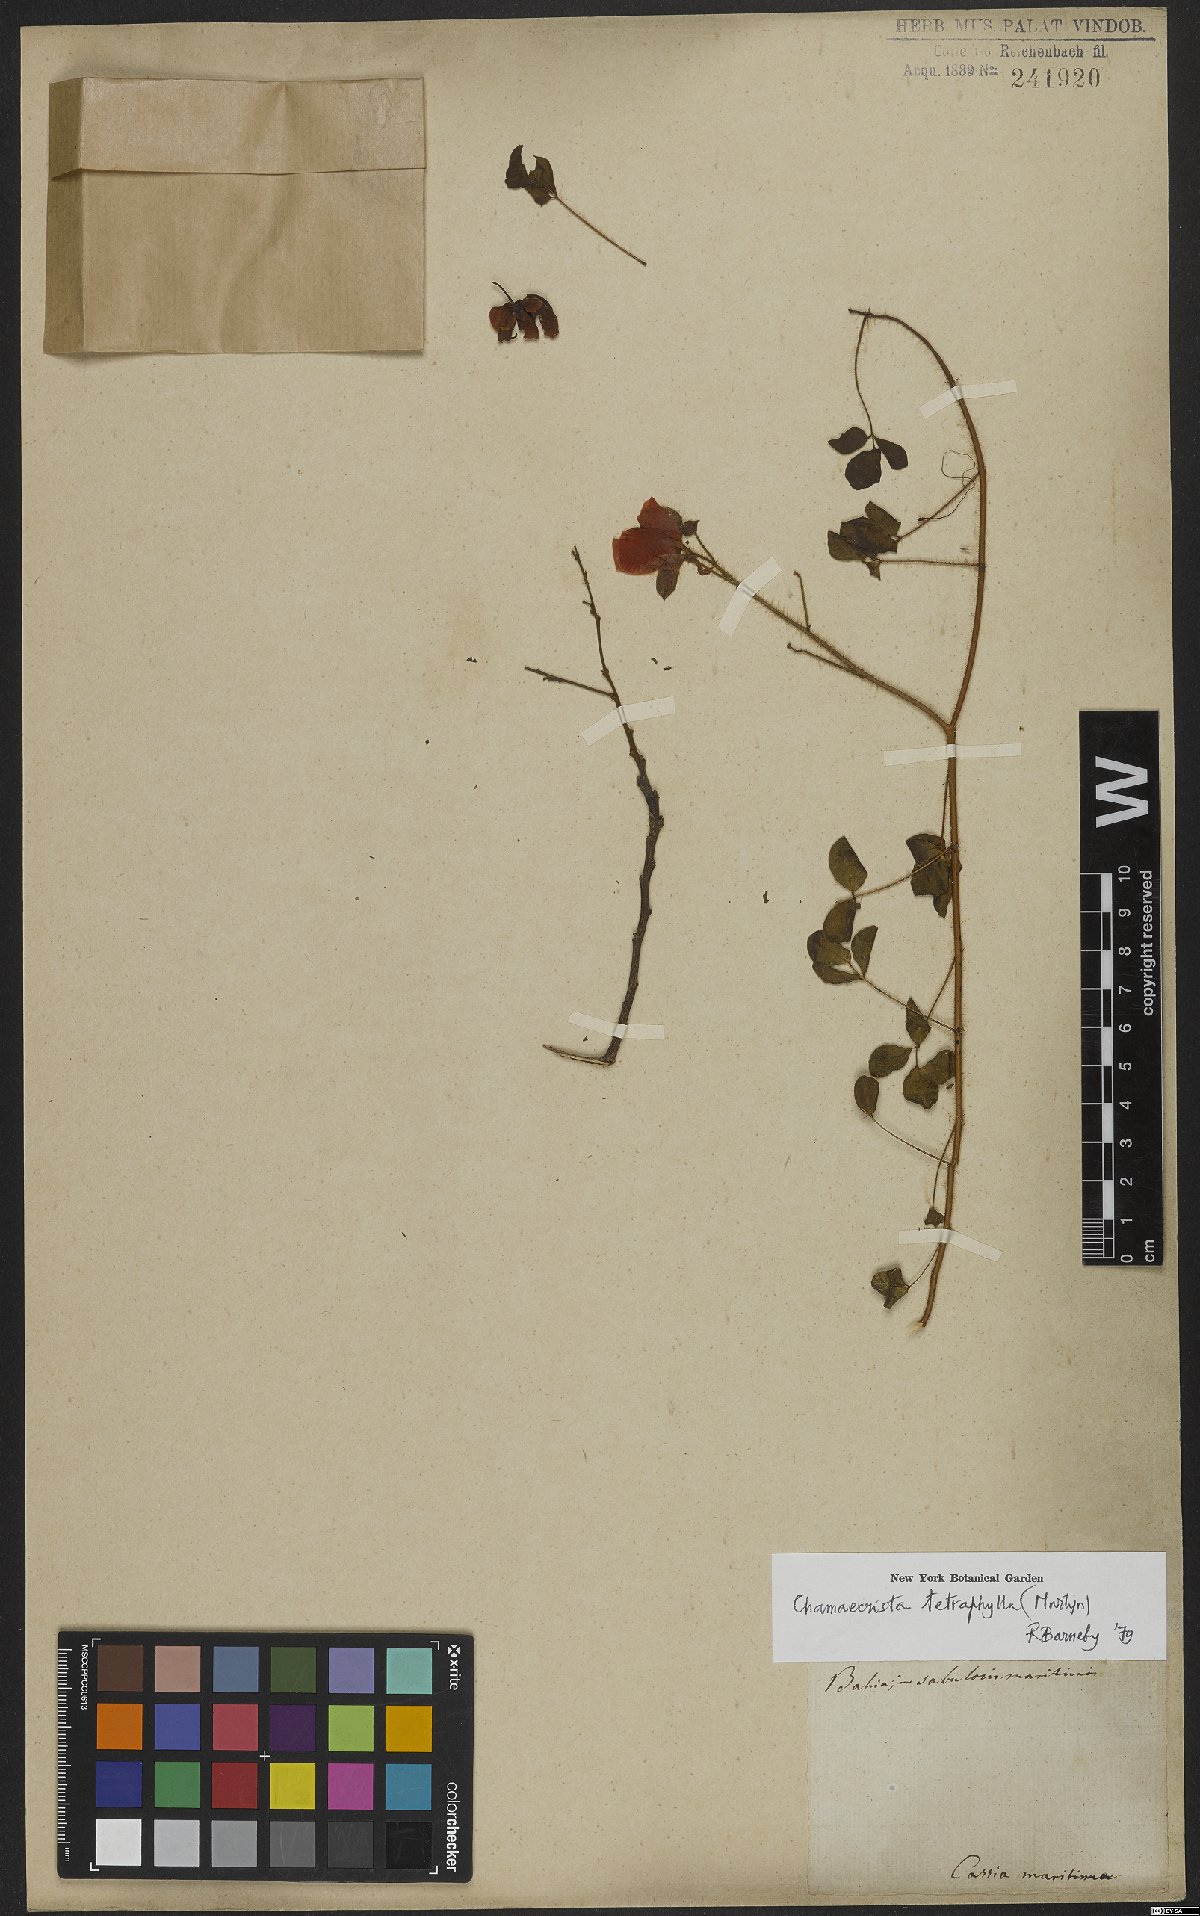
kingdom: Plantae
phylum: Tracheophyta
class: Magnoliopsida
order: Fabales
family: Fabaceae
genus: Chamaecrista
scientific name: Chamaecrista desvauxii
